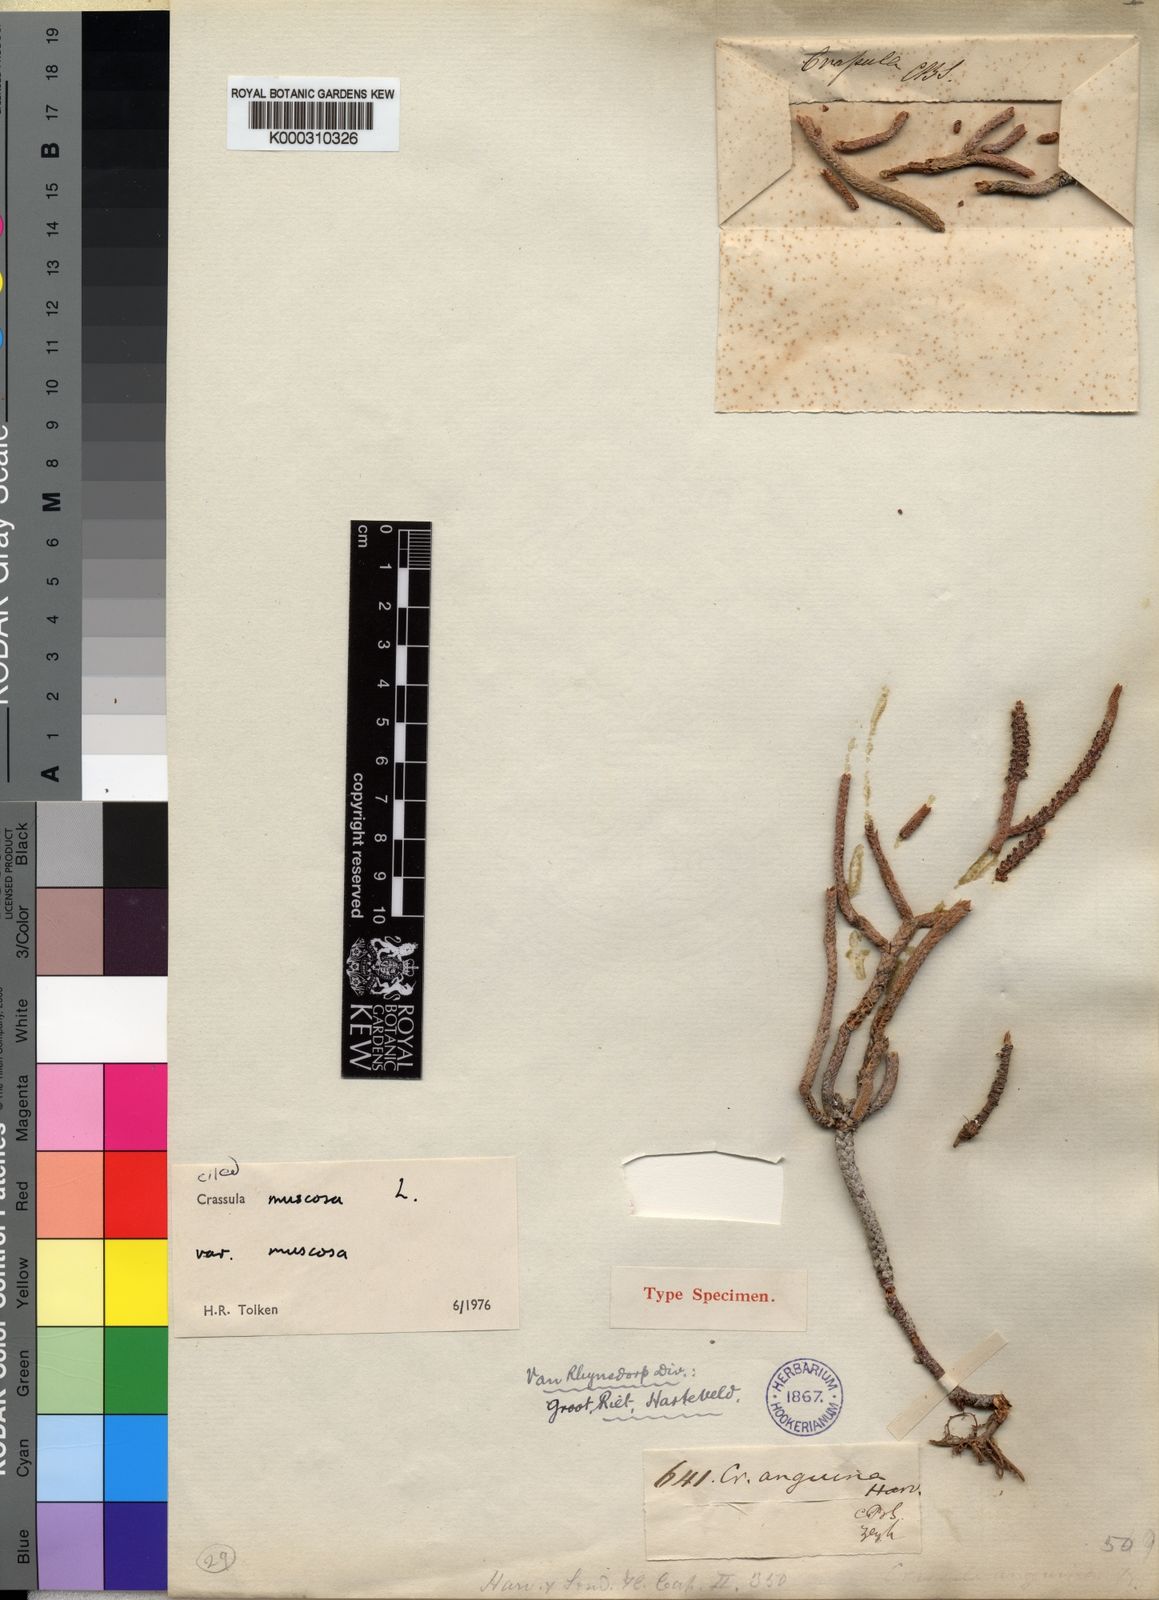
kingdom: Plantae
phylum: Tracheophyta
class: Magnoliopsida
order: Saxifragales
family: Crassulaceae
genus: Crassula
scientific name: Crassula muscosa
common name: Toy-cypress
